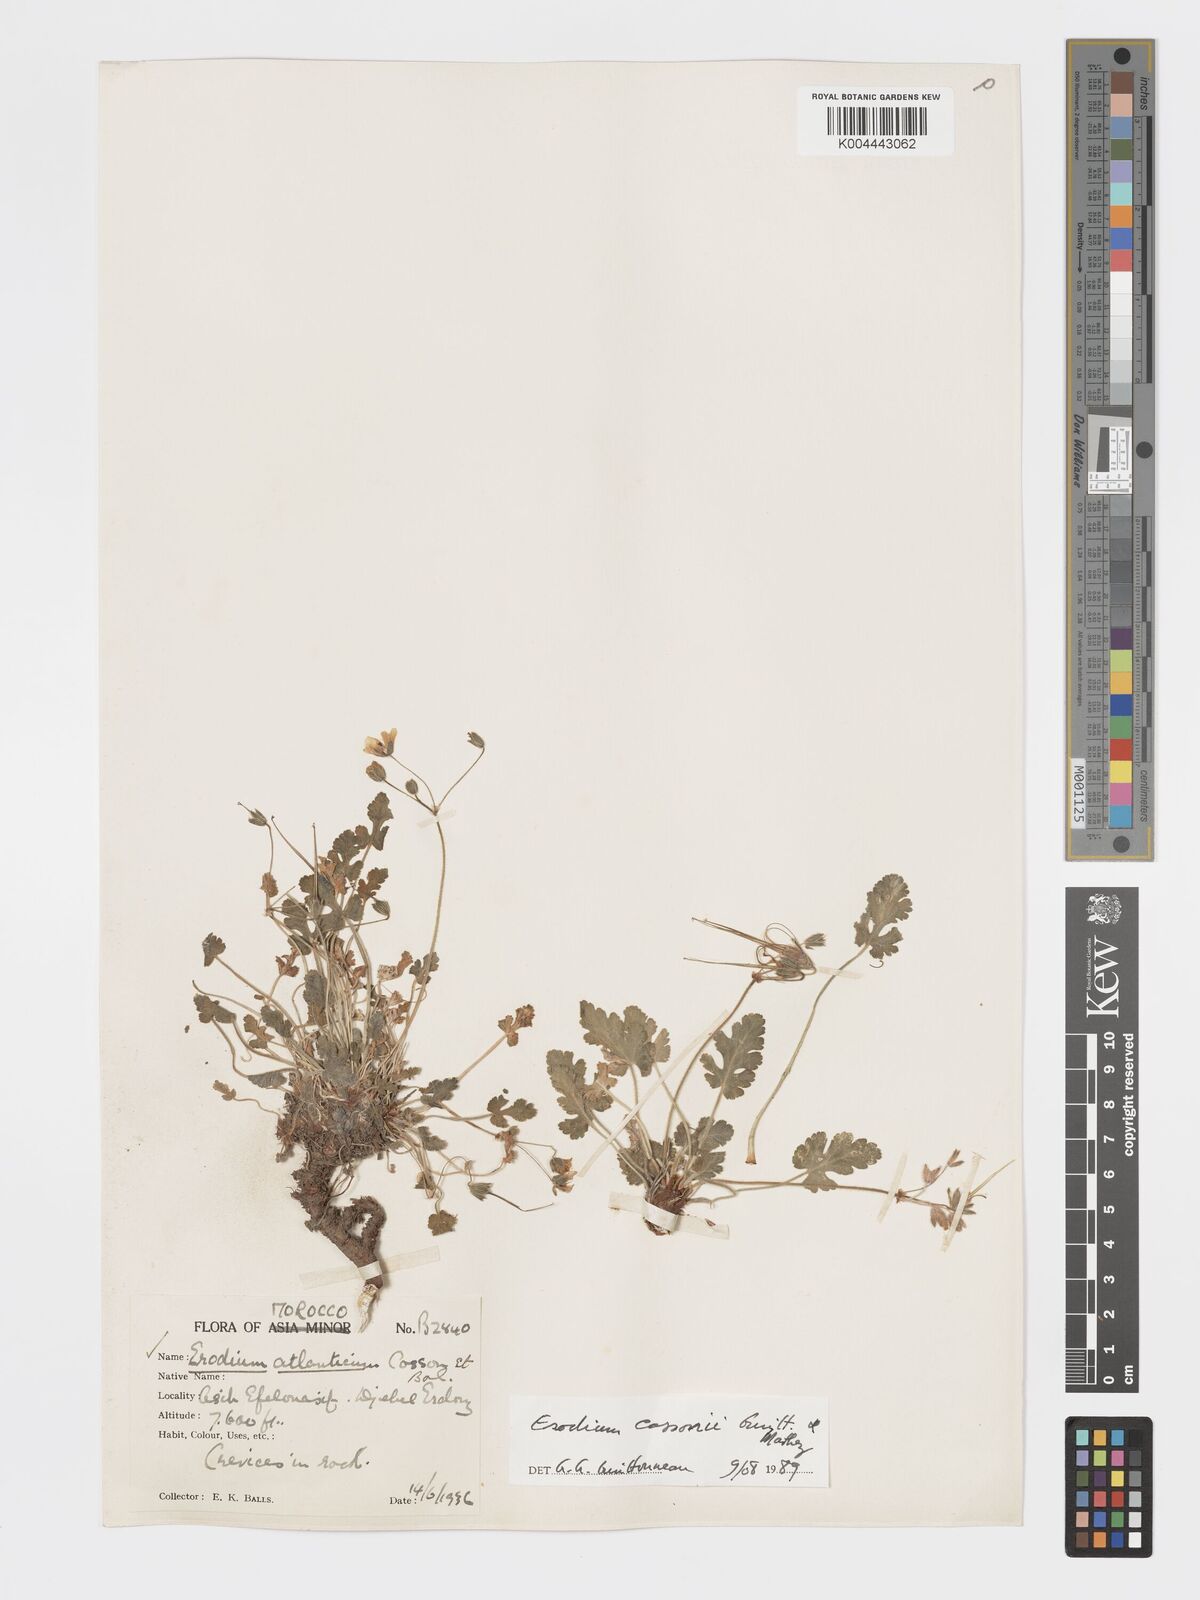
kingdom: Plantae
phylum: Tracheophyta
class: Magnoliopsida
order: Geraniales
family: Geraniaceae
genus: Erodium
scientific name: Erodium atlanticum
